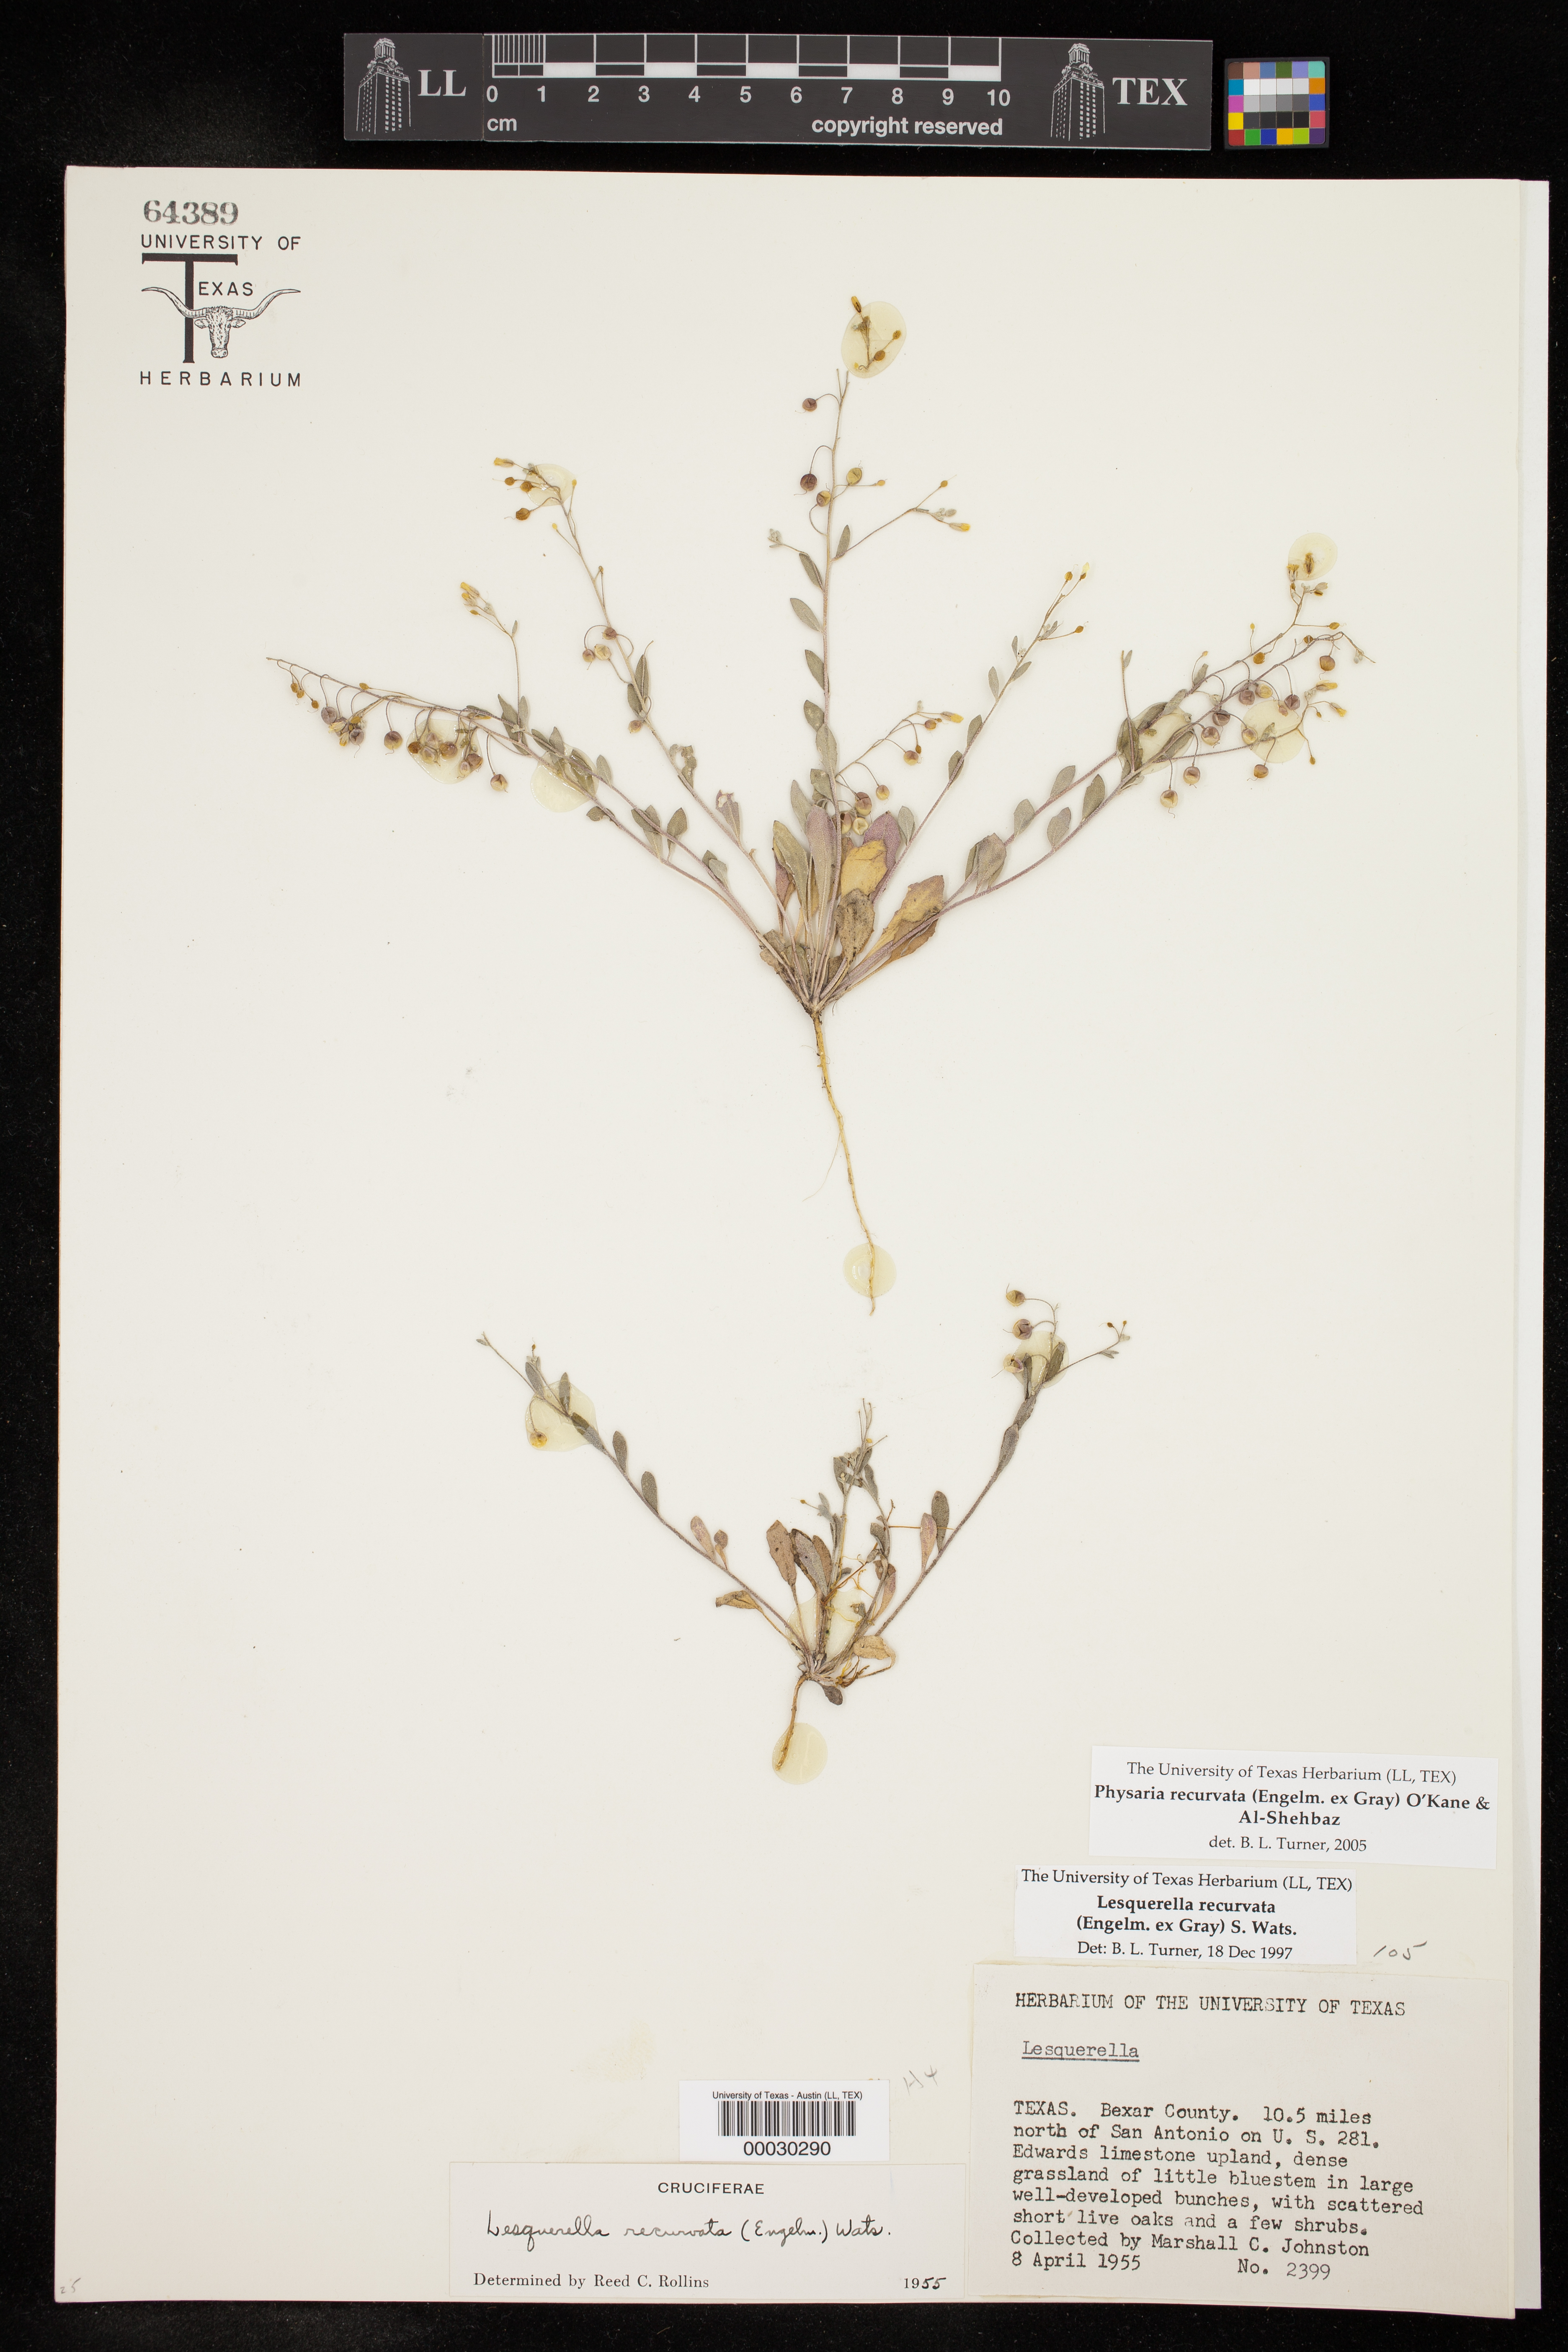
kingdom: Plantae
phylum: Tracheophyta
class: Magnoliopsida
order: Brassicales
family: Brassicaceae
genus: Physaria
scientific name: Physaria recurvata
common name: Gaslight bladderpod
